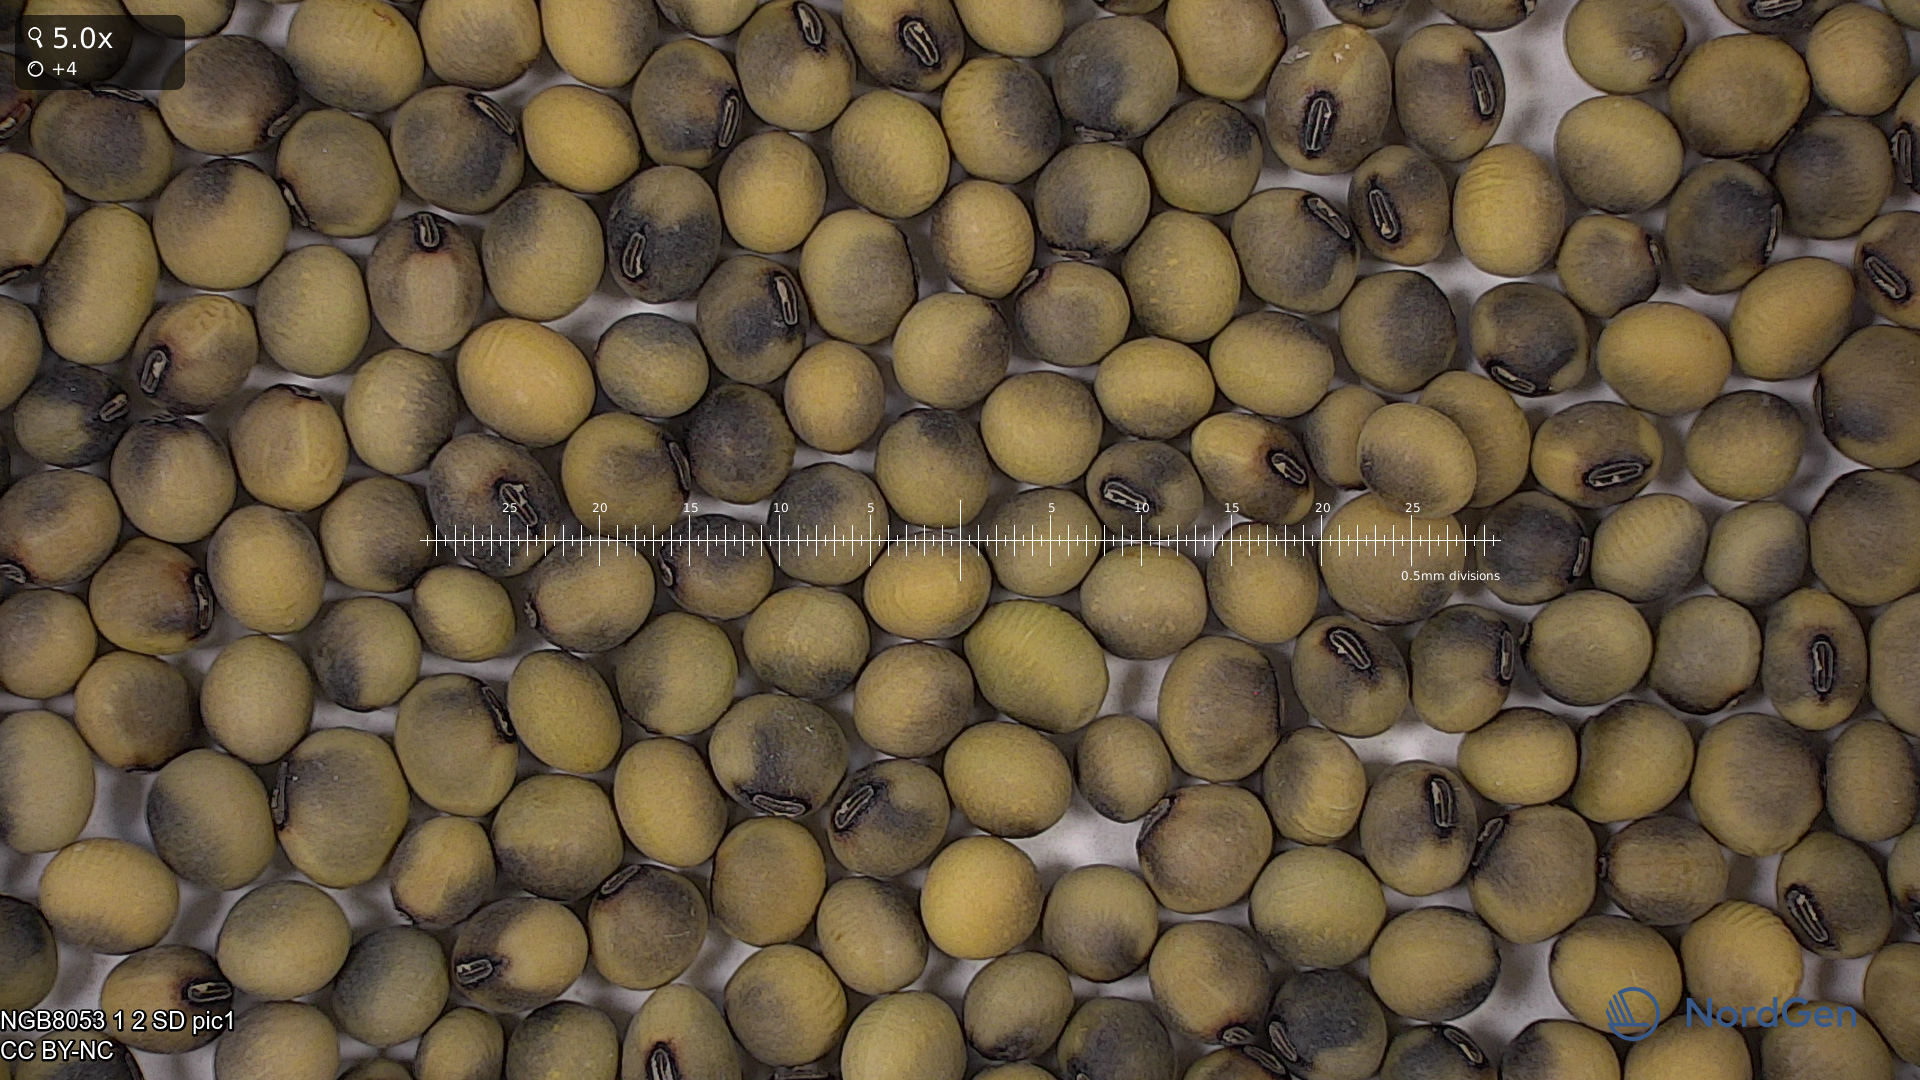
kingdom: Plantae
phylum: Tracheophyta
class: Magnoliopsida
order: Fabales
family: Fabaceae
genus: Glycine
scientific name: Glycine max
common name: Soya-bean
